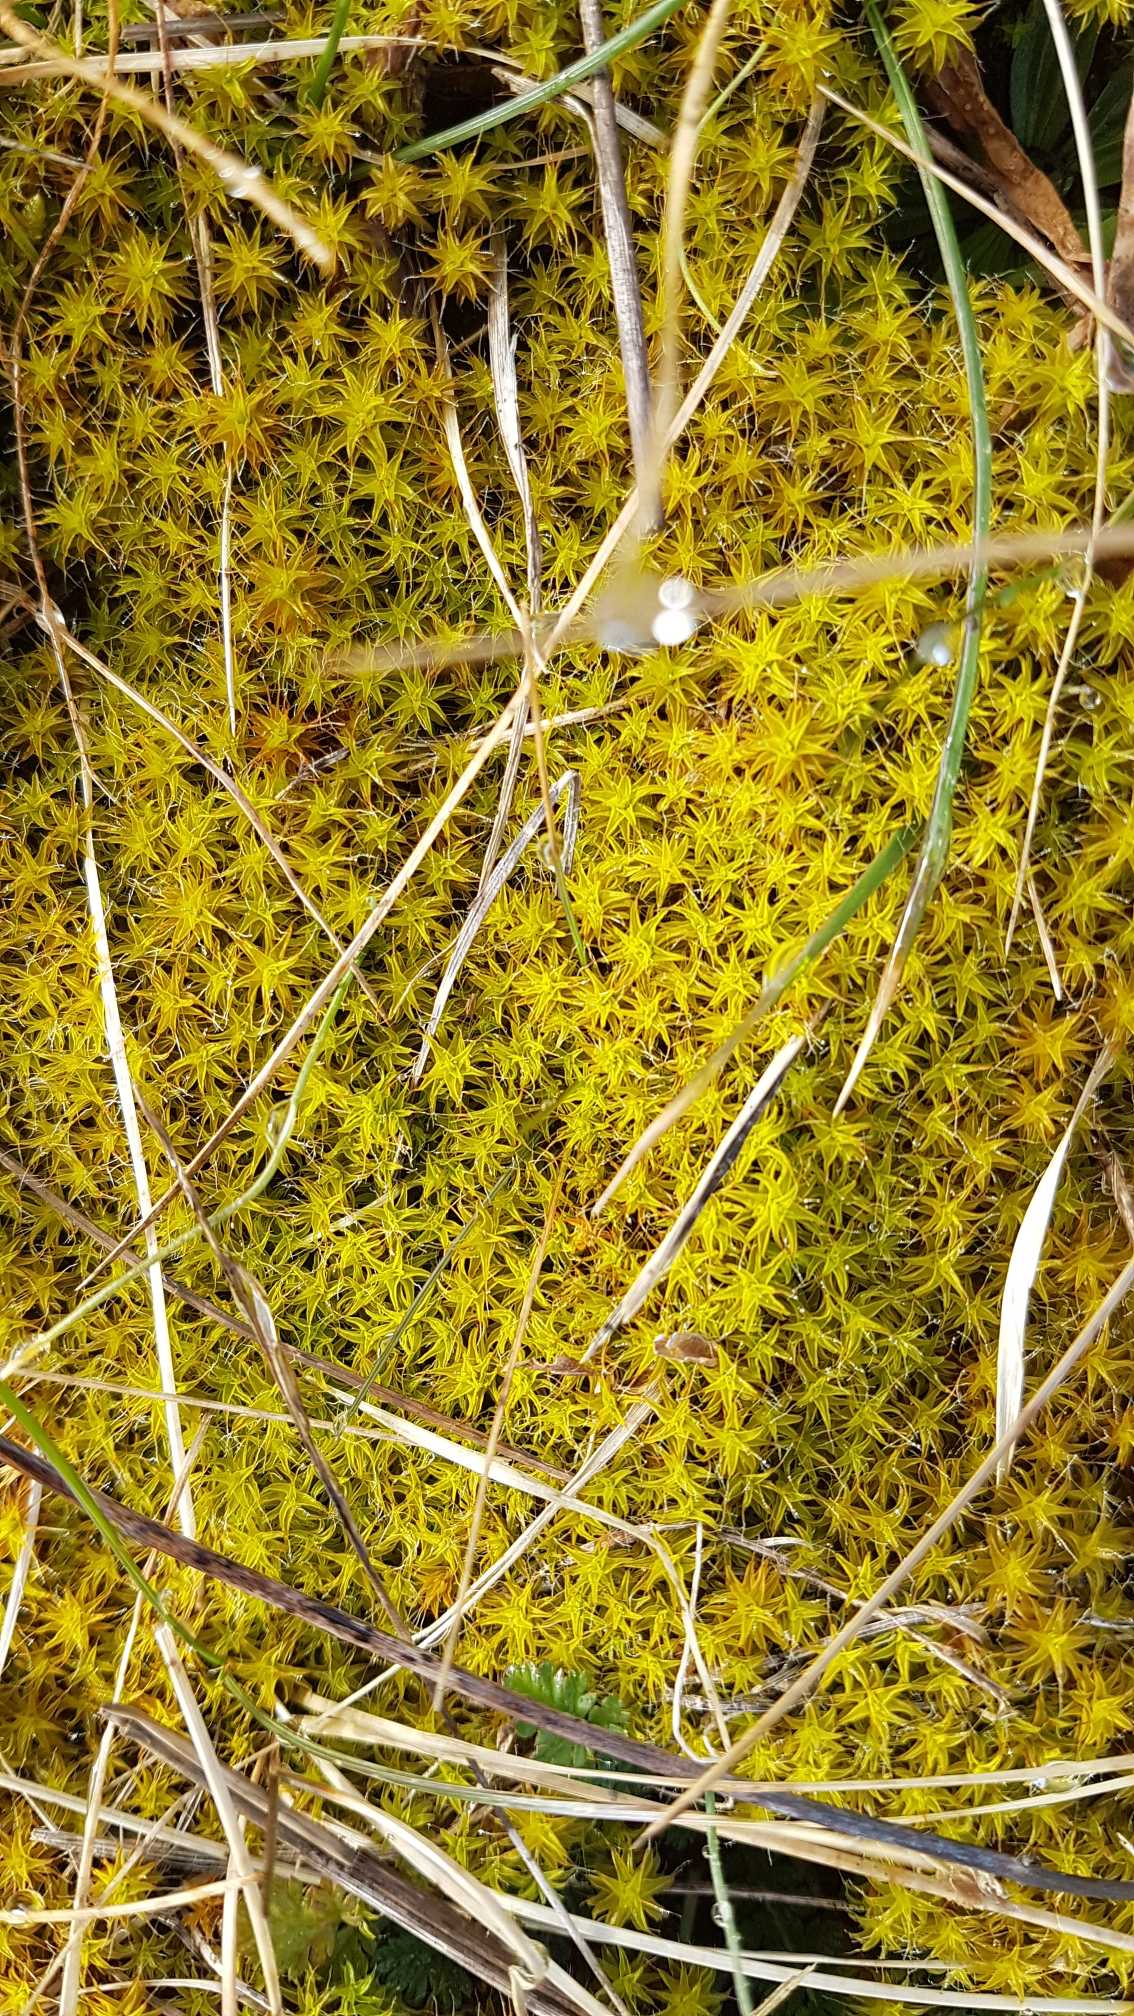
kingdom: Plantae
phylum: Bryophyta
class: Bryopsida
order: Pottiales
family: Pottiaceae
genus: Syntrichia
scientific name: Syntrichia ruralis
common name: Spidsbladet hårstjerne
